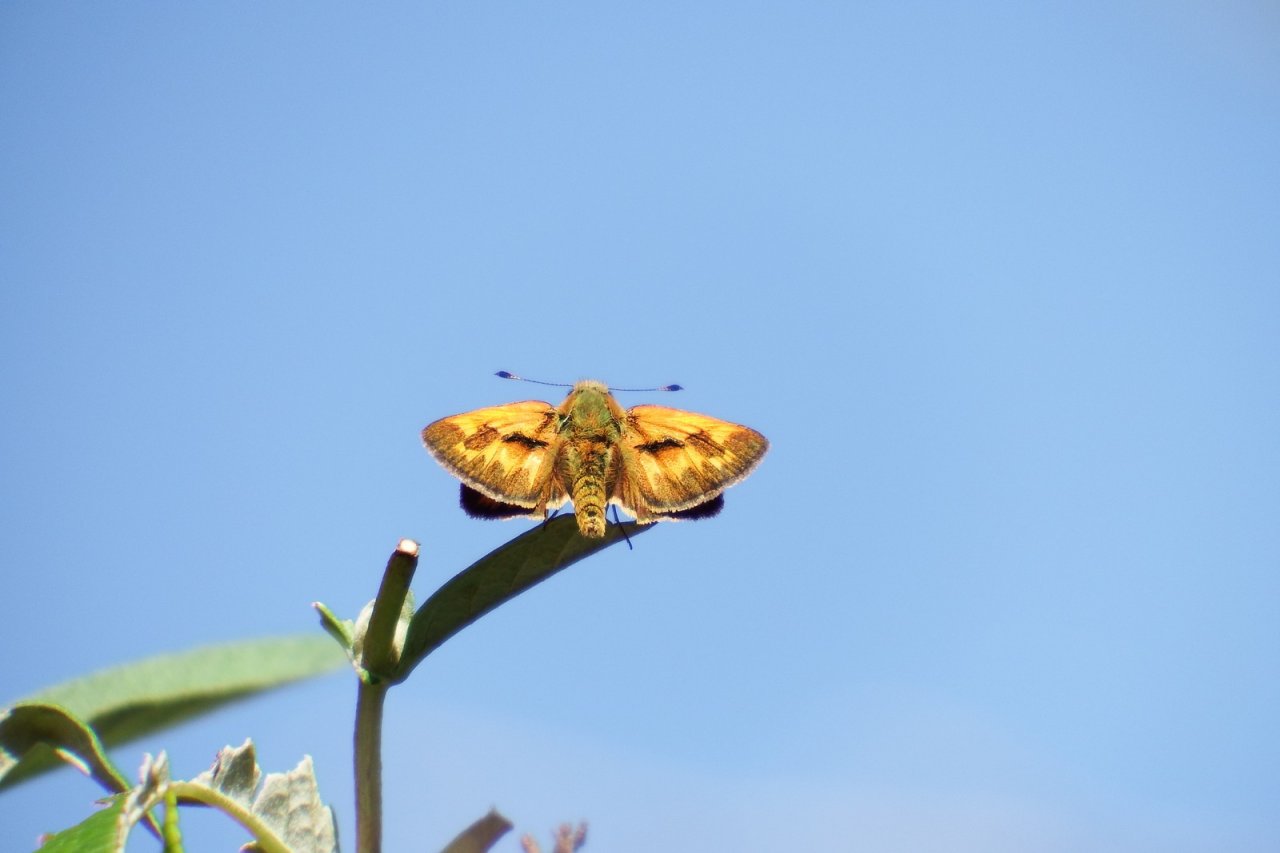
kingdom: Animalia
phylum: Arthropoda
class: Insecta
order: Lepidoptera
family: Hesperiidae
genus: Ochlodes
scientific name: Ochlodes sylvanoides
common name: Woodland Skipper
